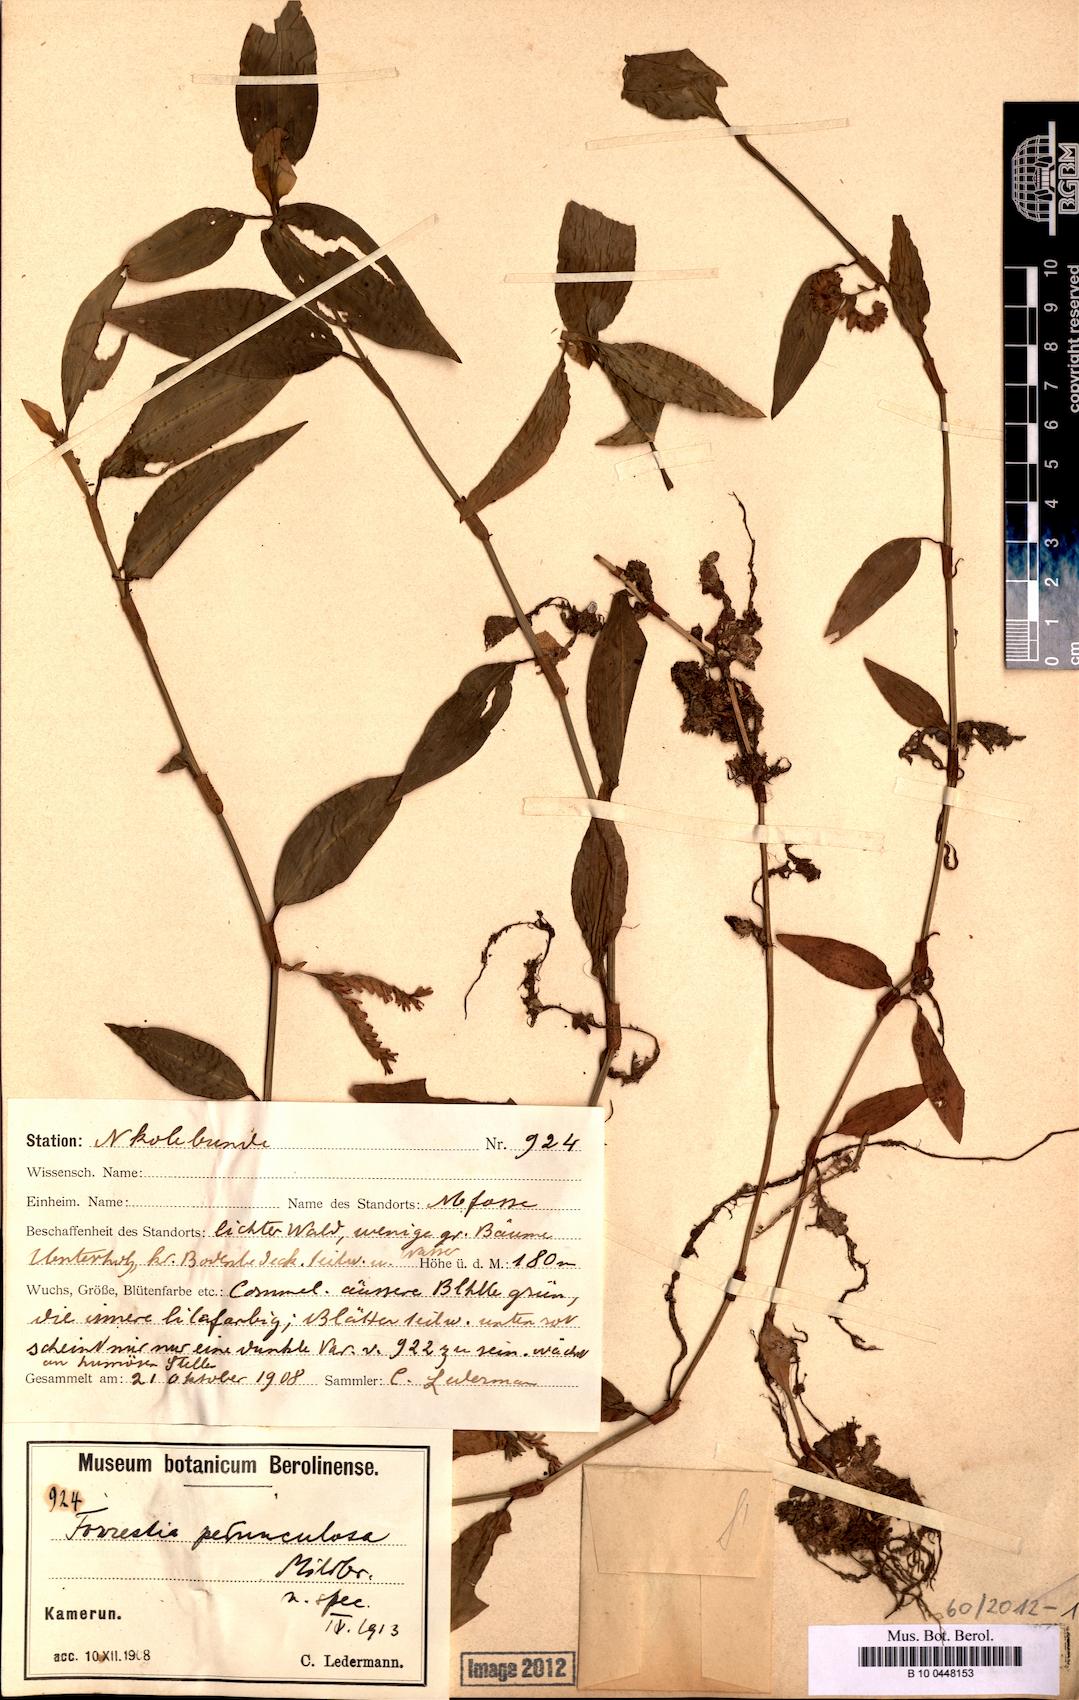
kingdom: Plantae
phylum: Tracheophyta
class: Liliopsida
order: Commelinales
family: Commelinaceae
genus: Amischotolype
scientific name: Amischotolype
